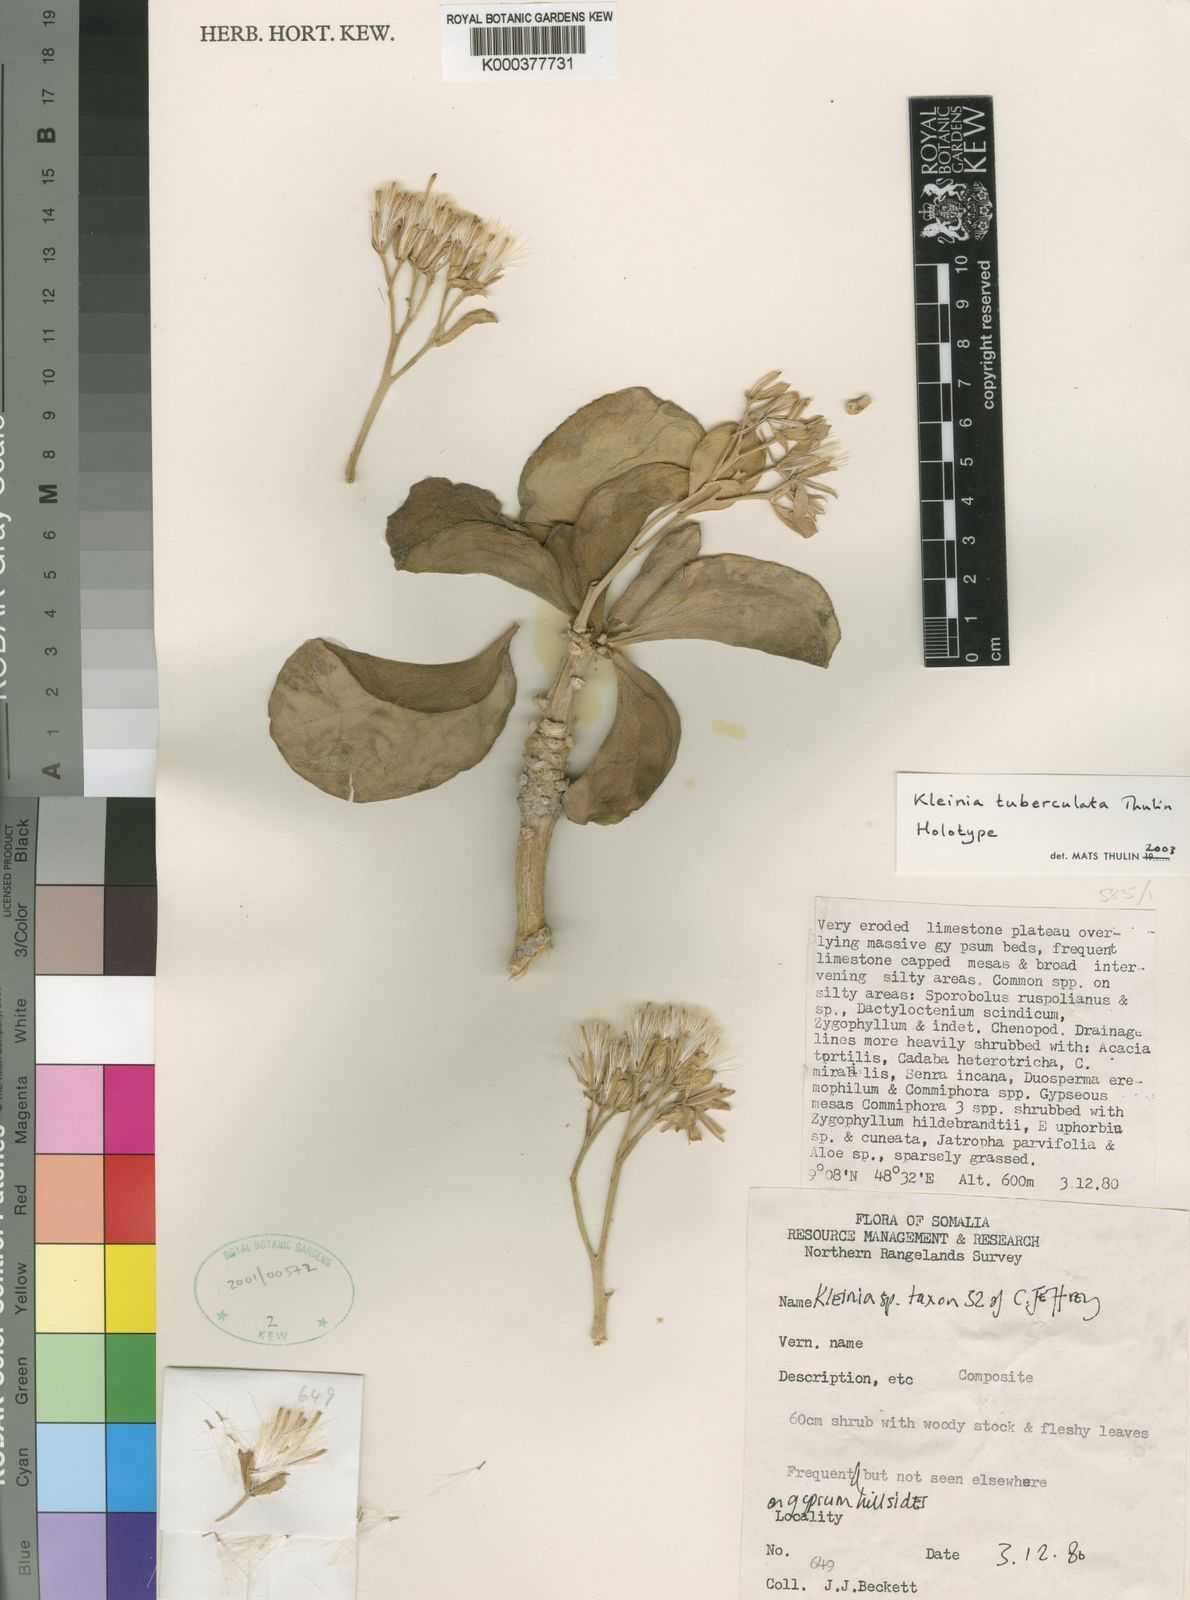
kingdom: Plantae
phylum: Tracheophyta
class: Magnoliopsida
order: Asterales
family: Asteraceae
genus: Kleinia
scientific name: Kleinia tuberculata
